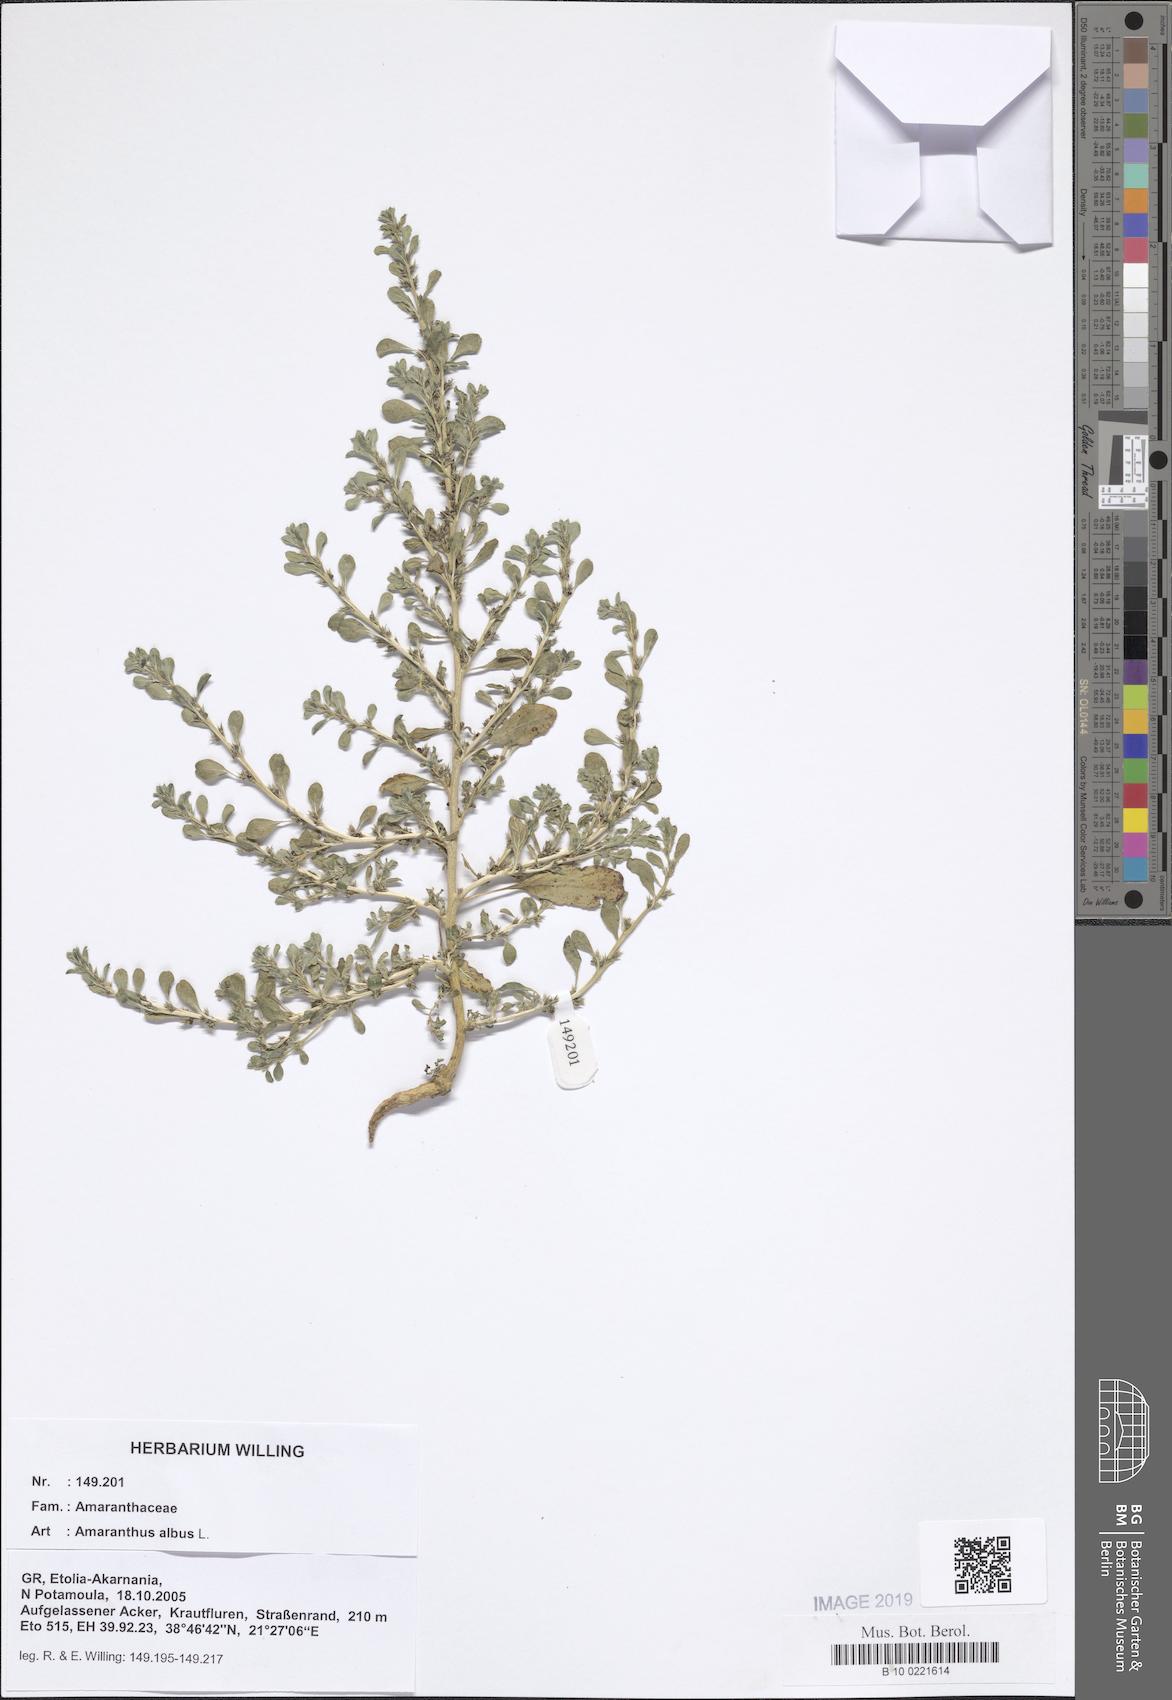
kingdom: Plantae
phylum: Tracheophyta
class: Magnoliopsida
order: Caryophyllales
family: Amaranthaceae
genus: Amaranthus
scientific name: Amaranthus albus
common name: White pigweed
